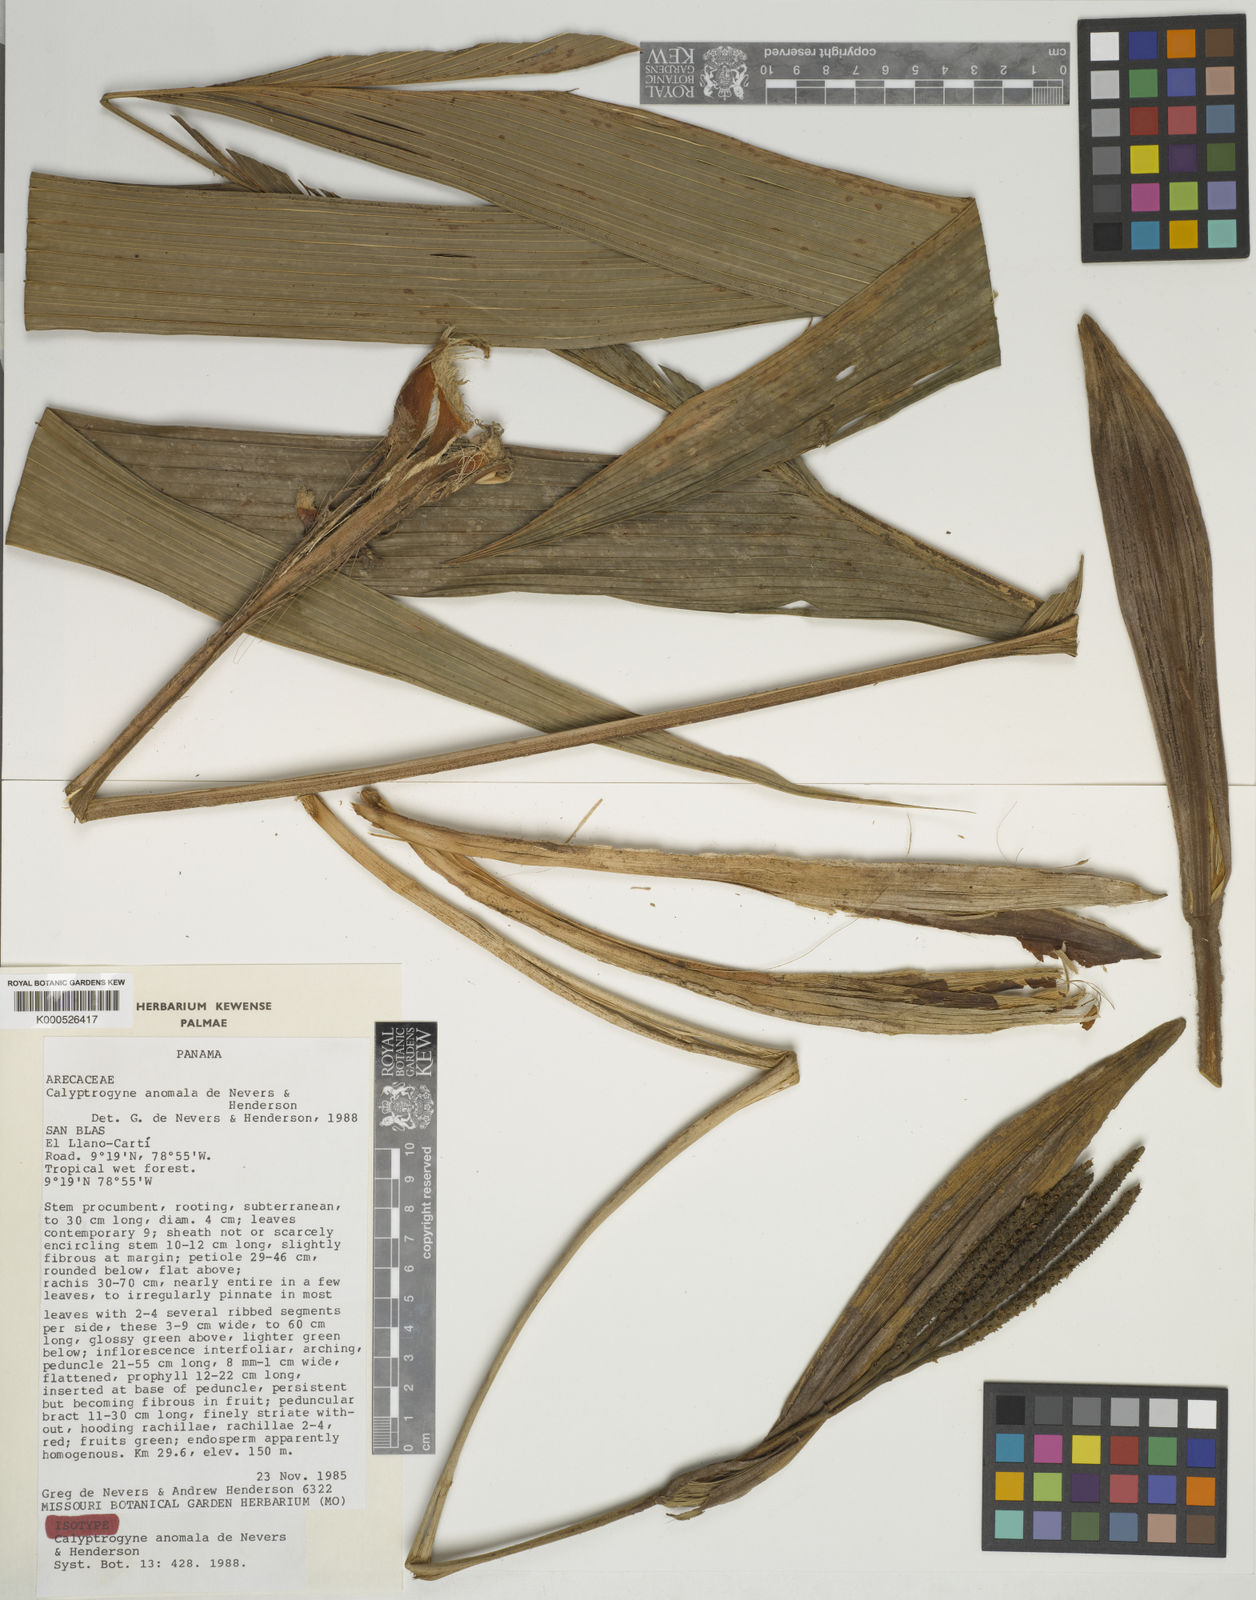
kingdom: Plantae
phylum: Tracheophyta
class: Liliopsida
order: Arecales
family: Arecaceae
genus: Calyptrogyne
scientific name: Calyptrogyne anomala
